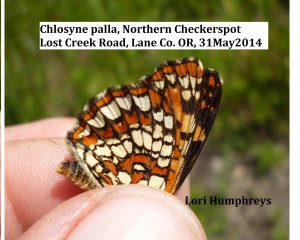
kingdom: Animalia
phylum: Arthropoda
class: Insecta
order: Lepidoptera
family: Nymphalidae
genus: Chlosyne
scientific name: Chlosyne palla
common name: Northern Checkerspot
